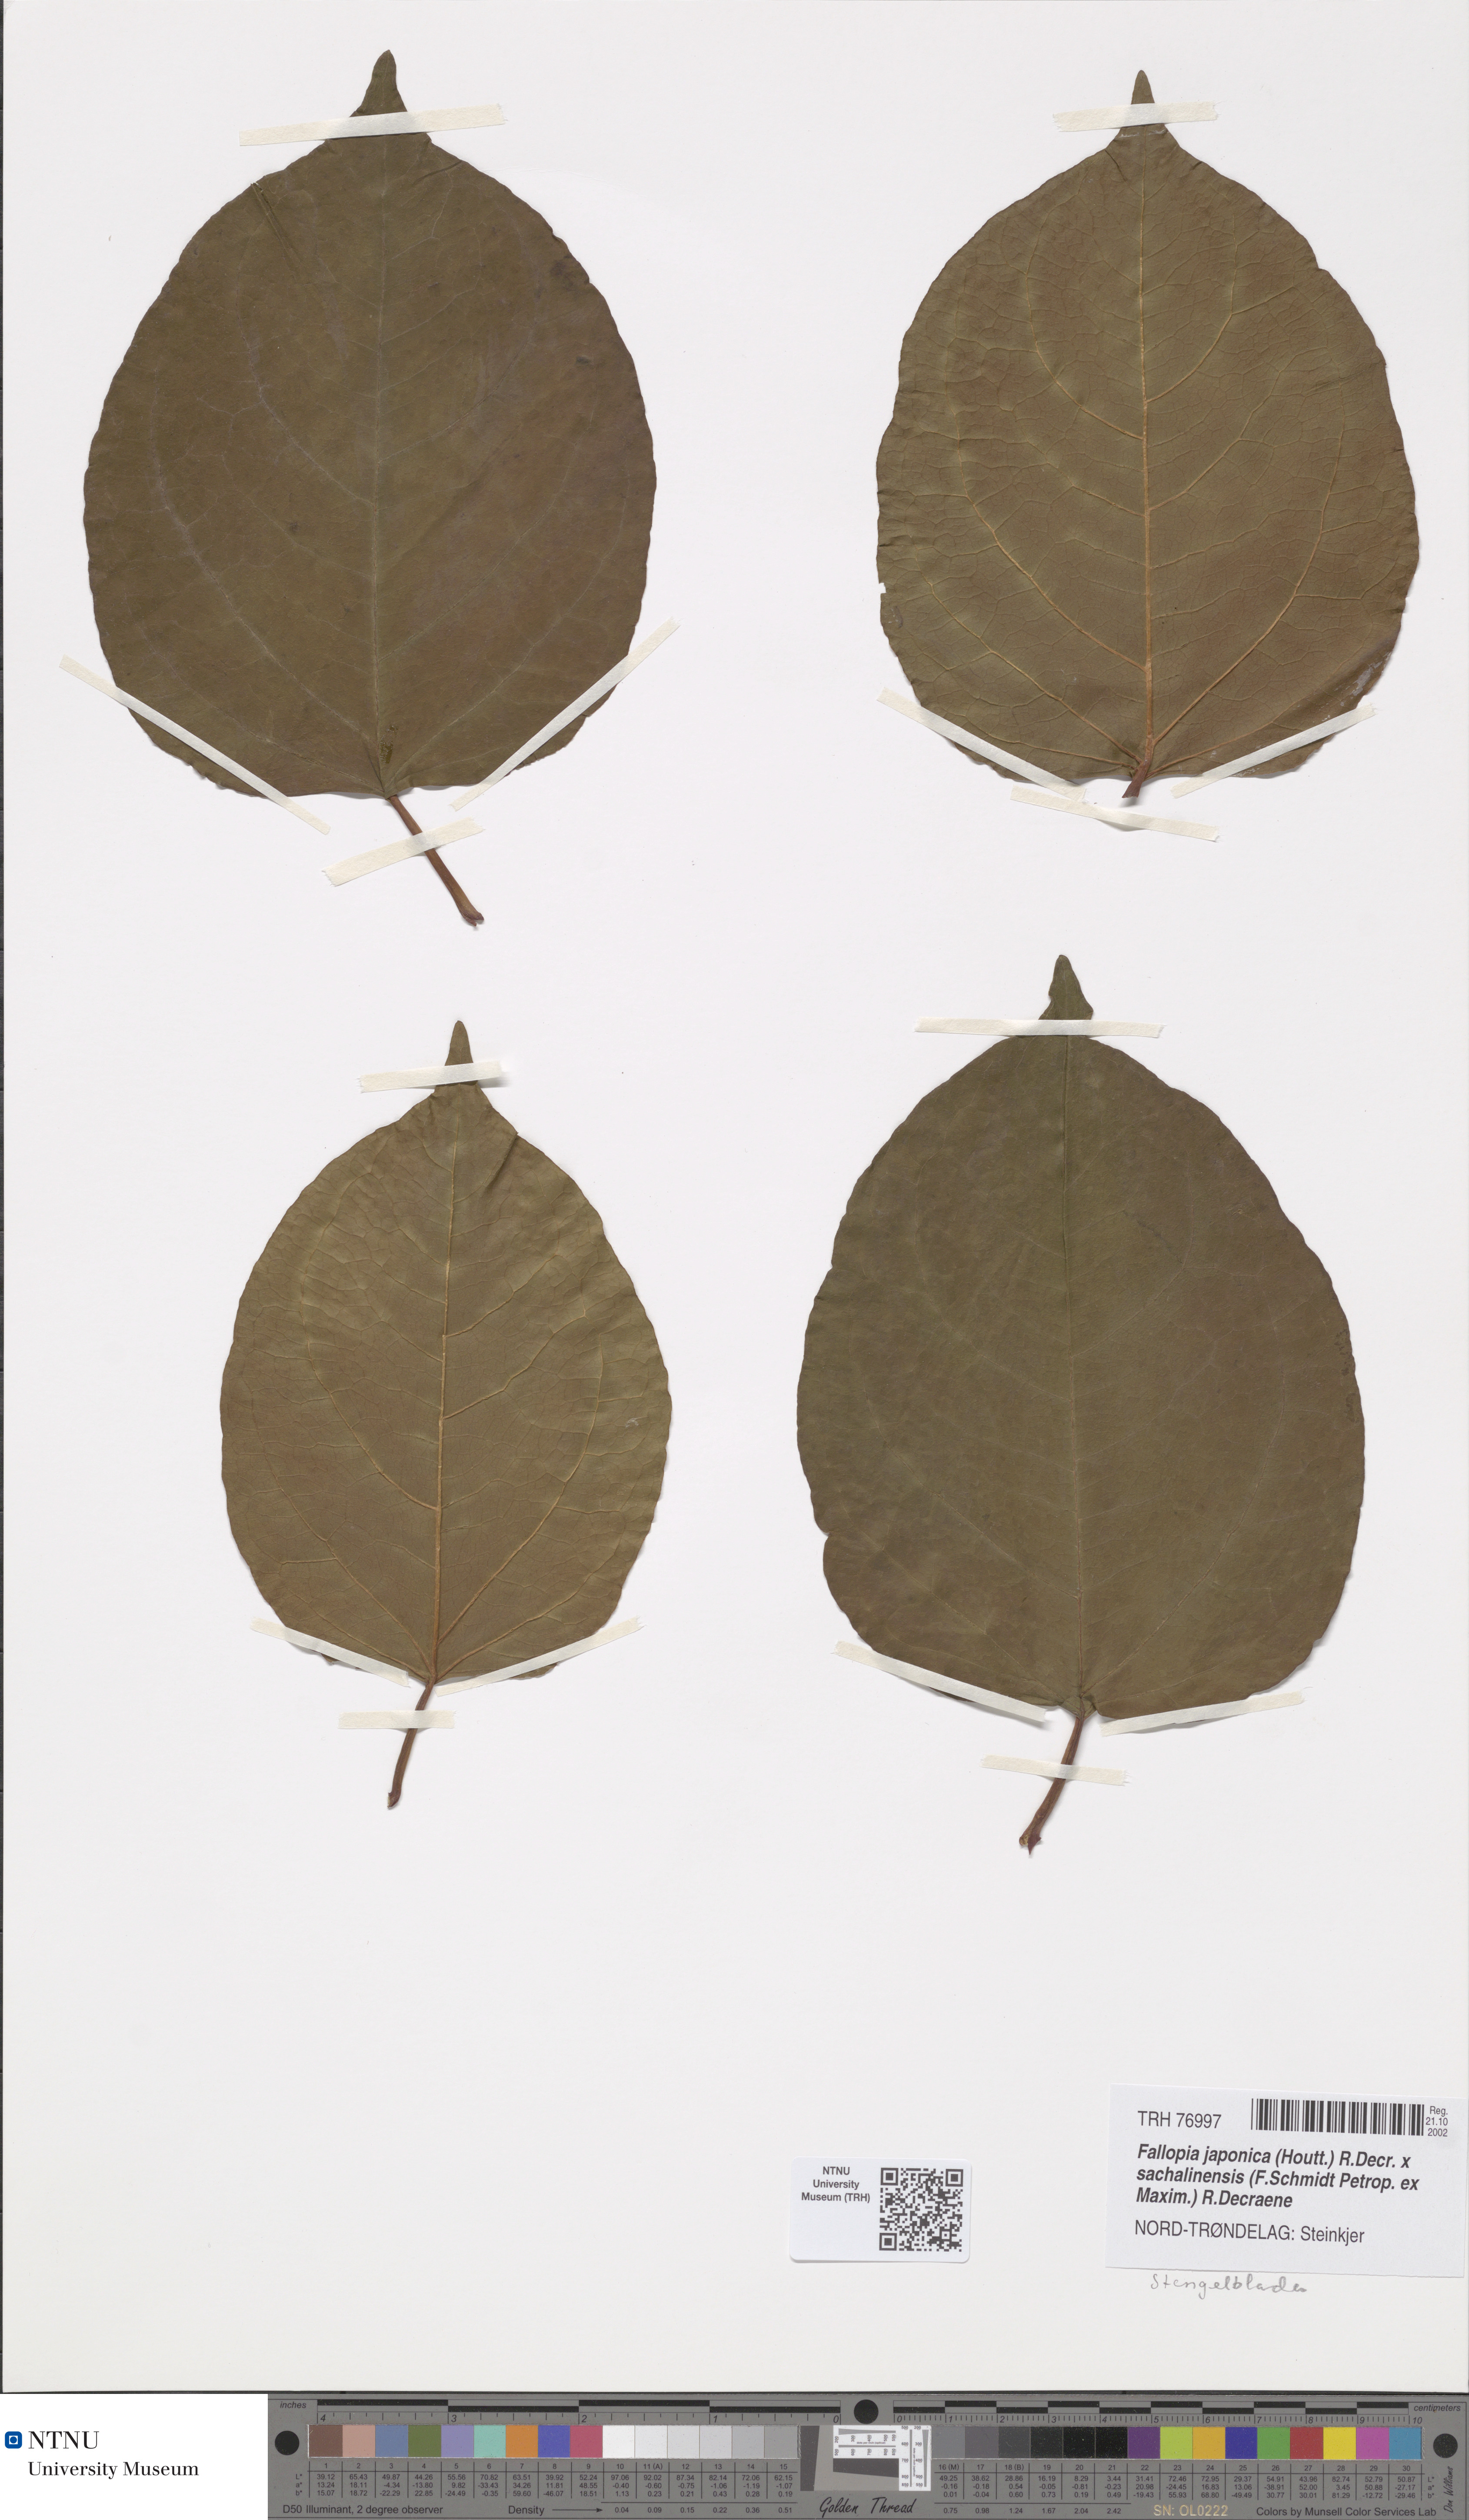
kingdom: Plantae
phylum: Tracheophyta
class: Magnoliopsida
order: Caryophyllales
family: Polygonaceae
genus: Reynoutria
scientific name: Reynoutria bohemica
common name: Bohemian knotweed
